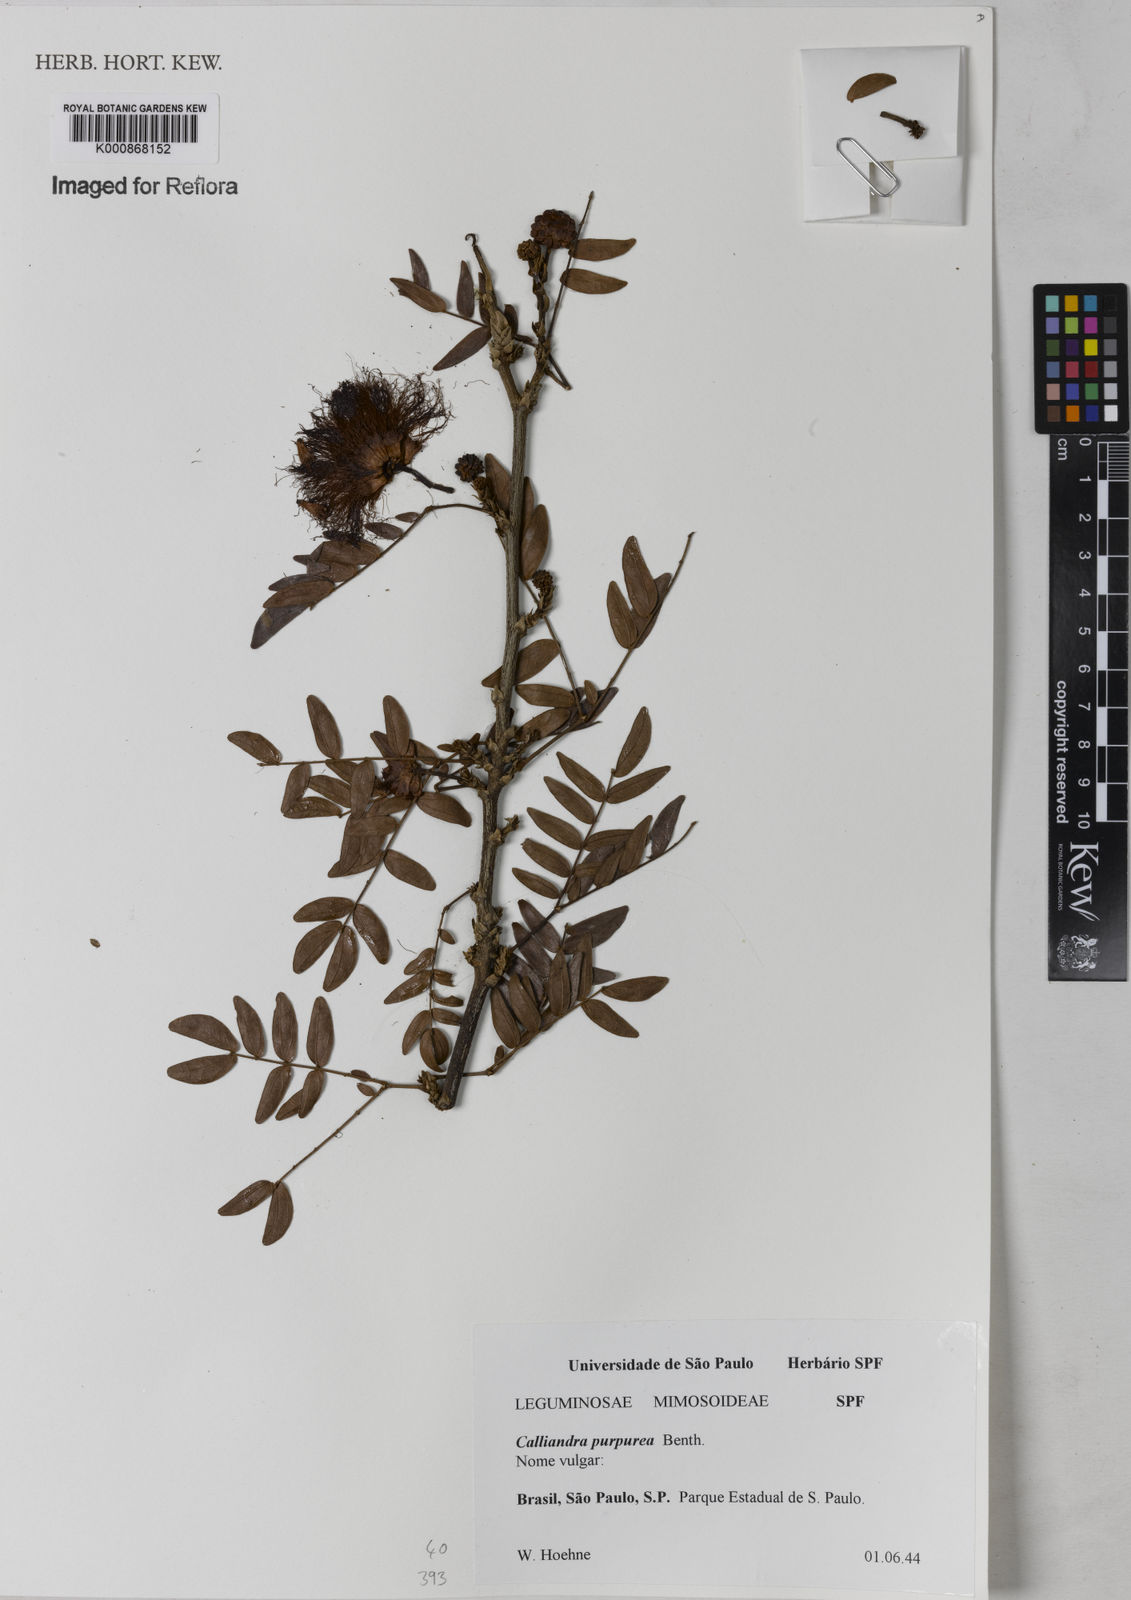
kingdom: Plantae
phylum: Tracheophyta
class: Magnoliopsida
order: Fabales
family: Fabaceae
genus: Calliandra
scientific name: Calliandra purpurea
